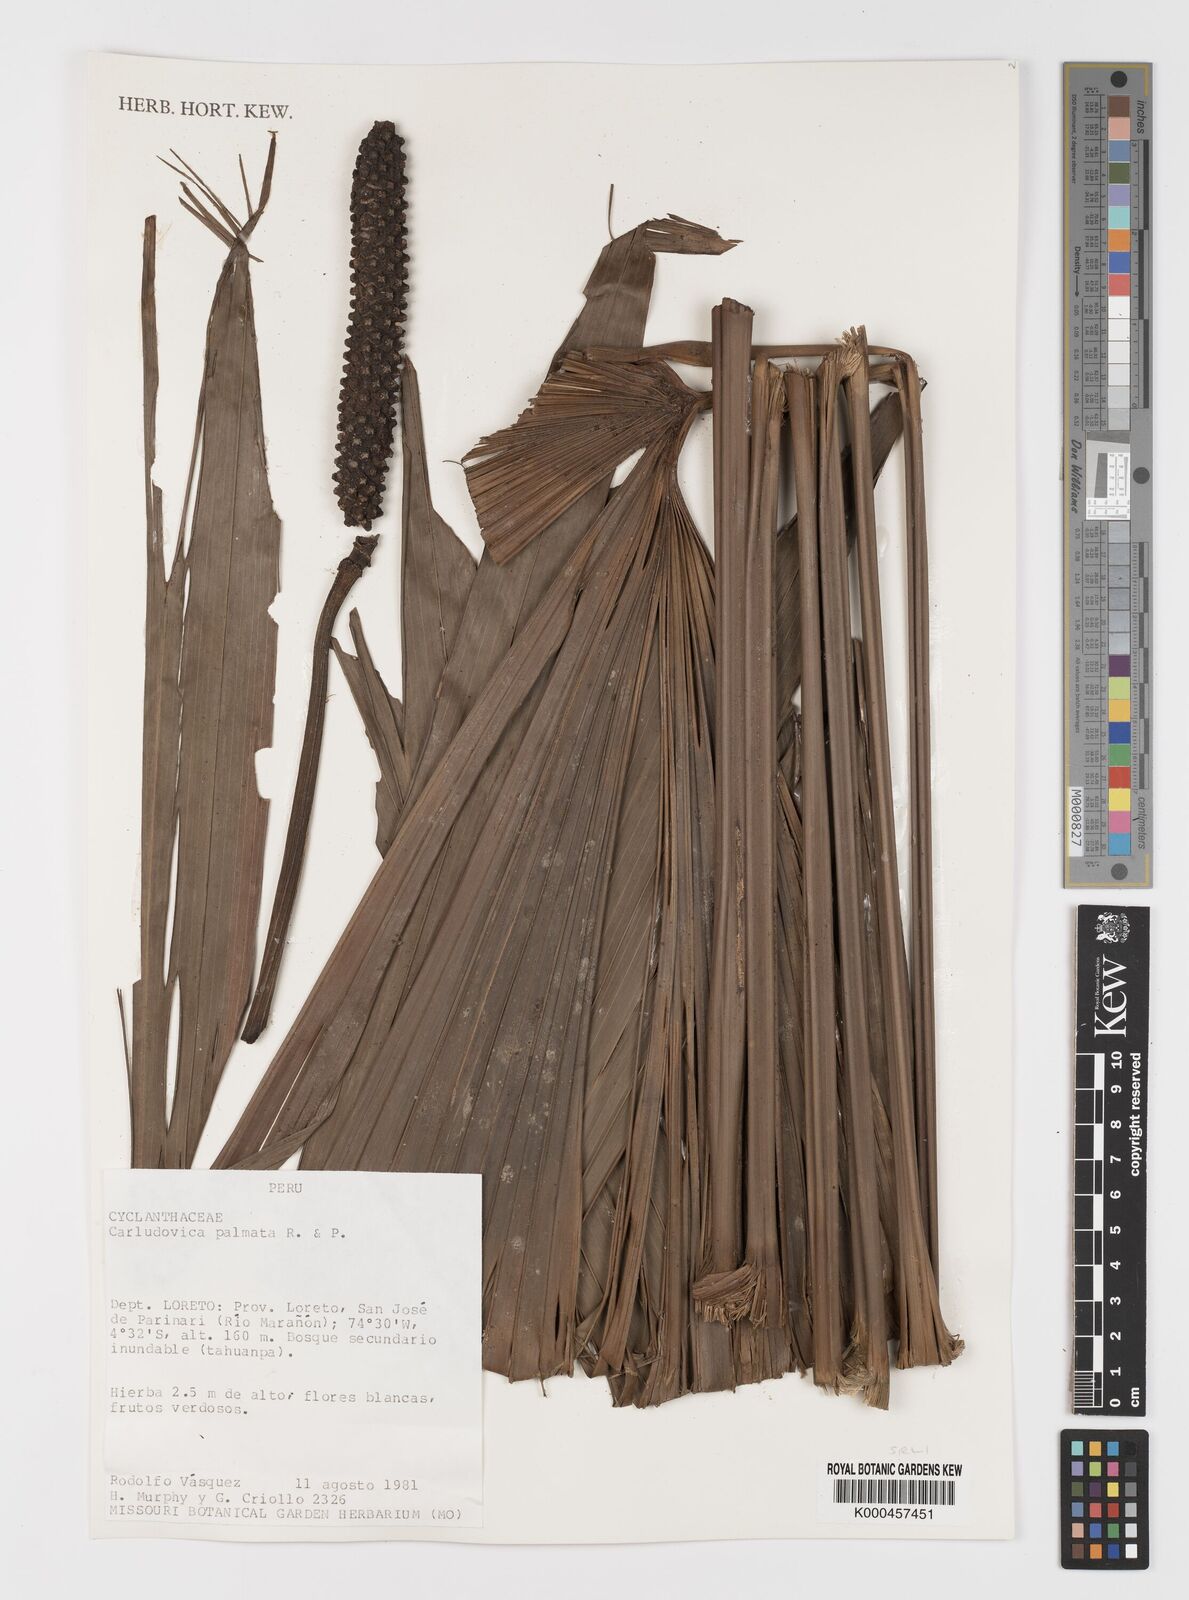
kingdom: Plantae
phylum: Tracheophyta
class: Liliopsida
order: Pandanales
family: Cyclanthaceae
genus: Carludovica
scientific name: Carludovica palmata
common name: Panama hat plant
